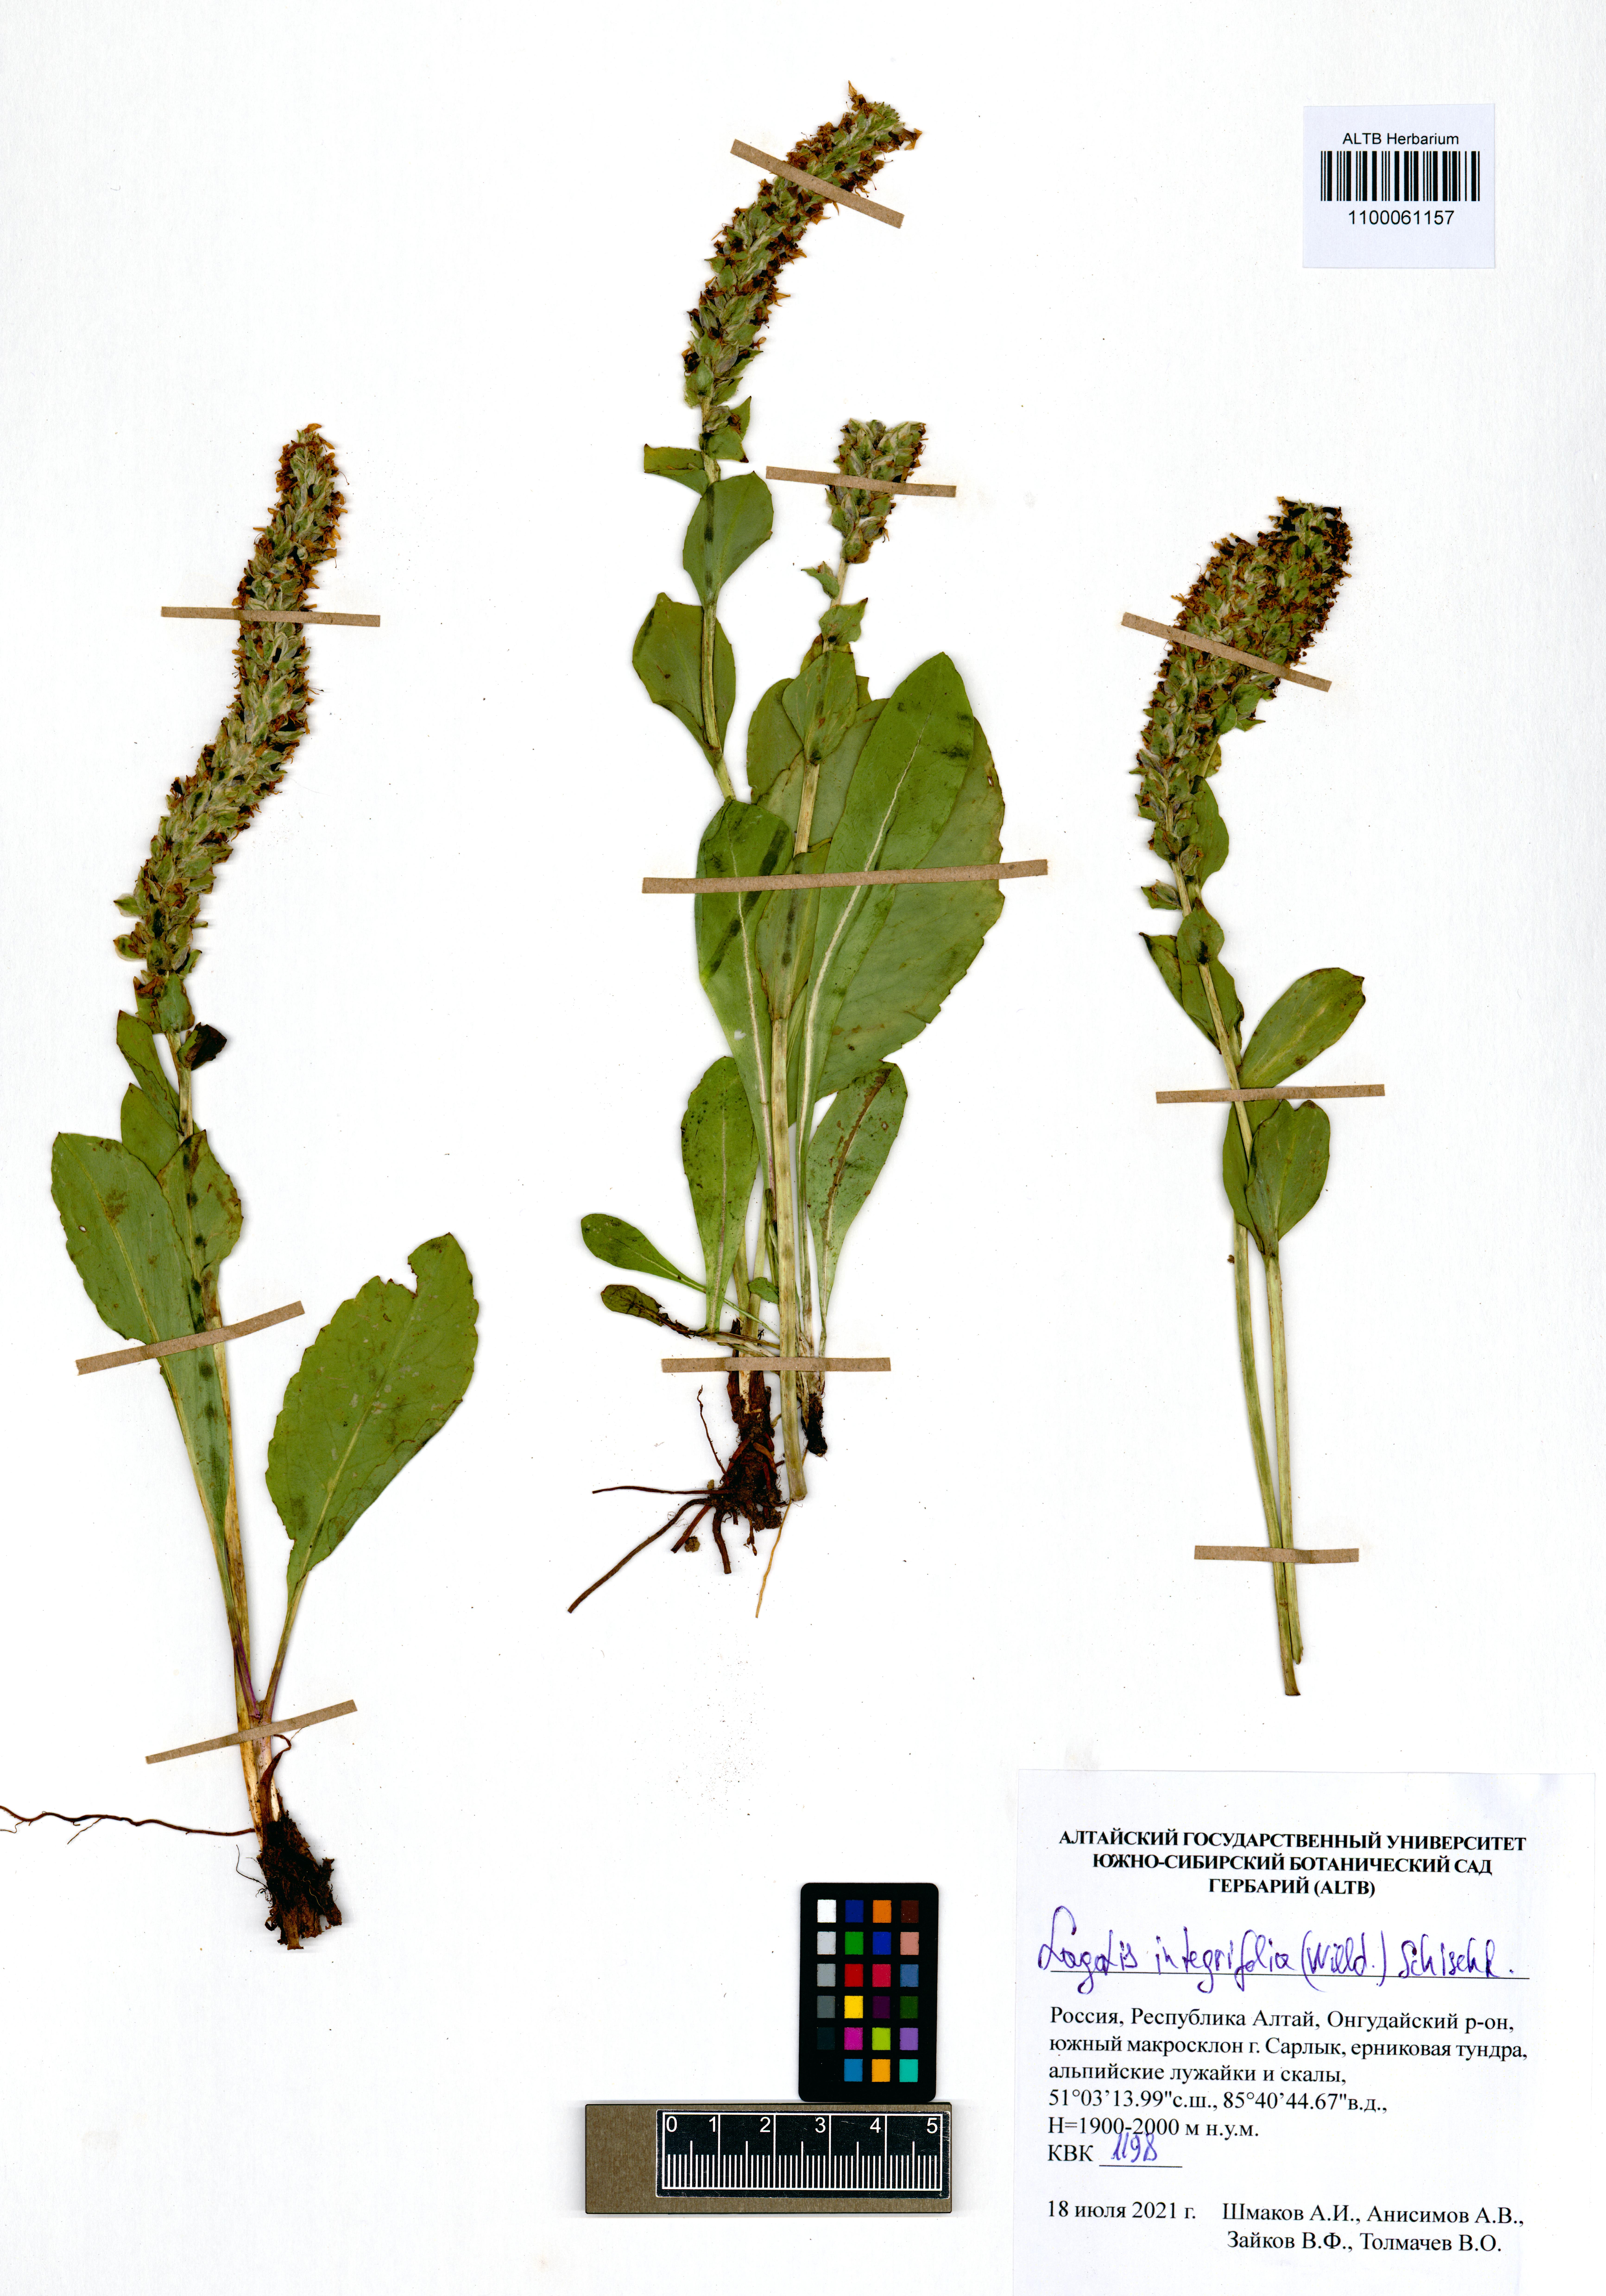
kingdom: Plantae
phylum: Tracheophyta
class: Magnoliopsida
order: Lamiales
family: Plantaginaceae
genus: Lagotis
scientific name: Lagotis integrifolia
